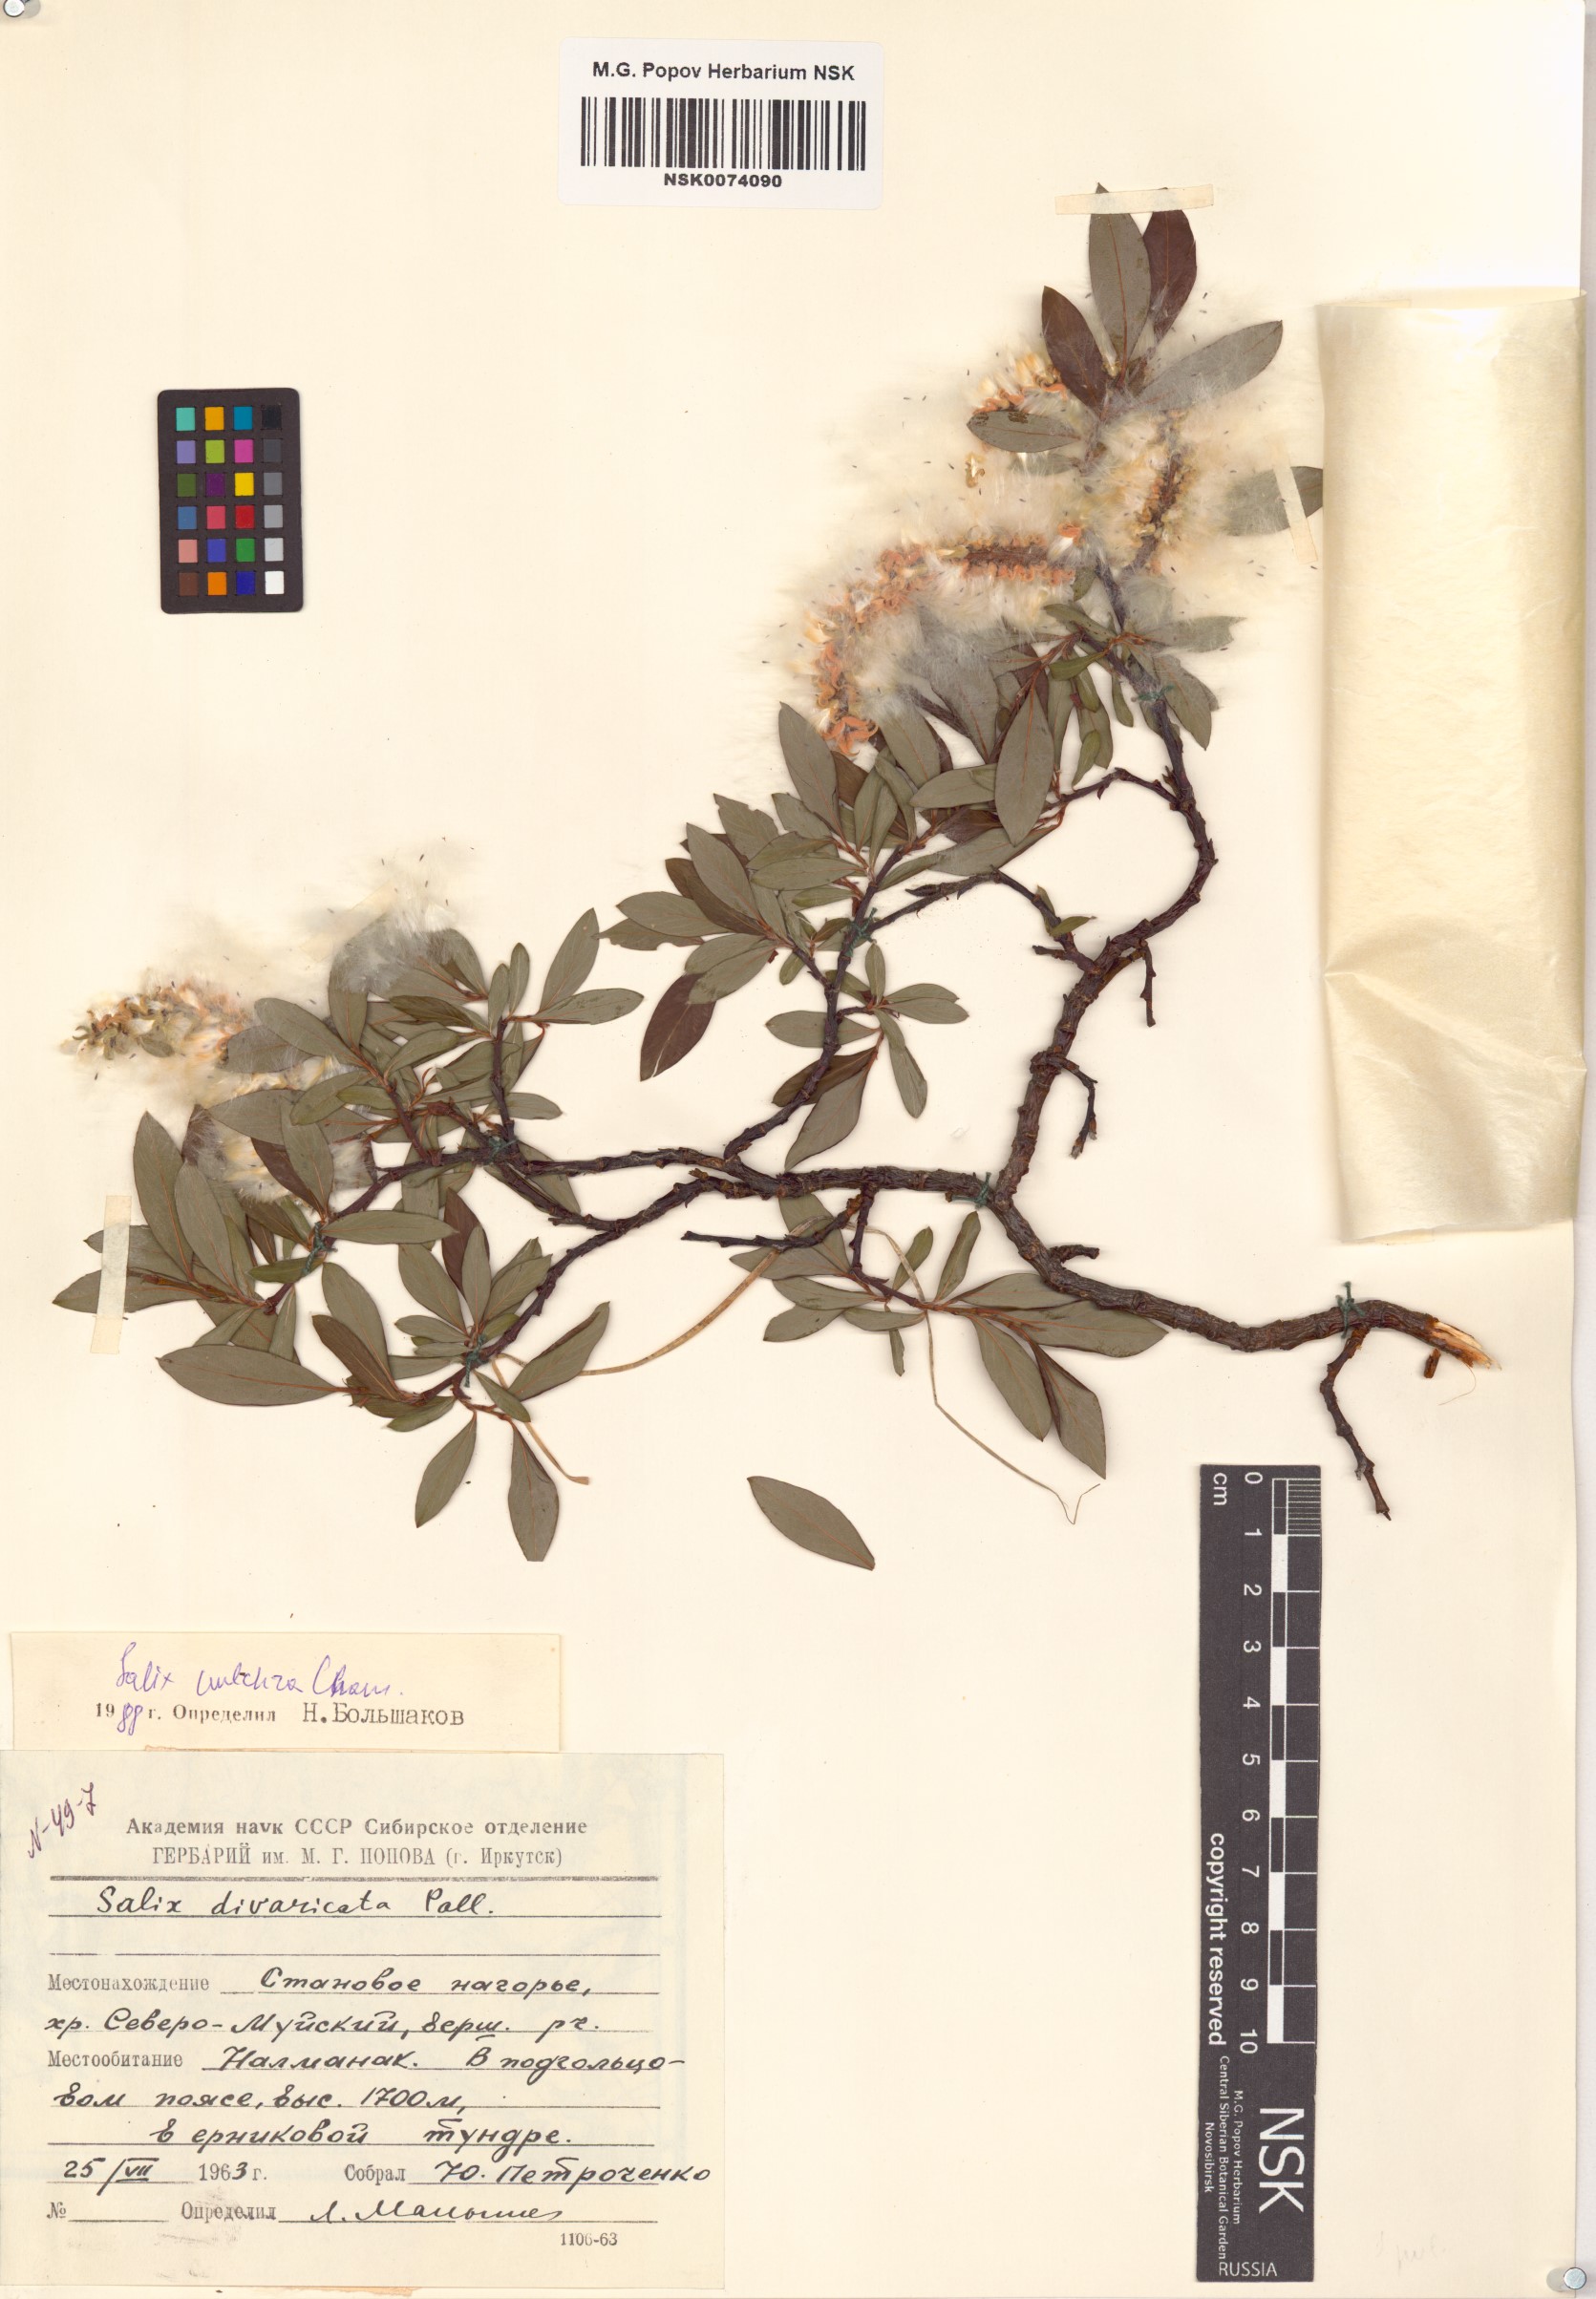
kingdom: Plantae
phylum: Tracheophyta
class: Magnoliopsida
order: Malpighiales
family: Salicaceae
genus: Salix
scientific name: Salix pulchra
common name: Diamond-leaved willow
